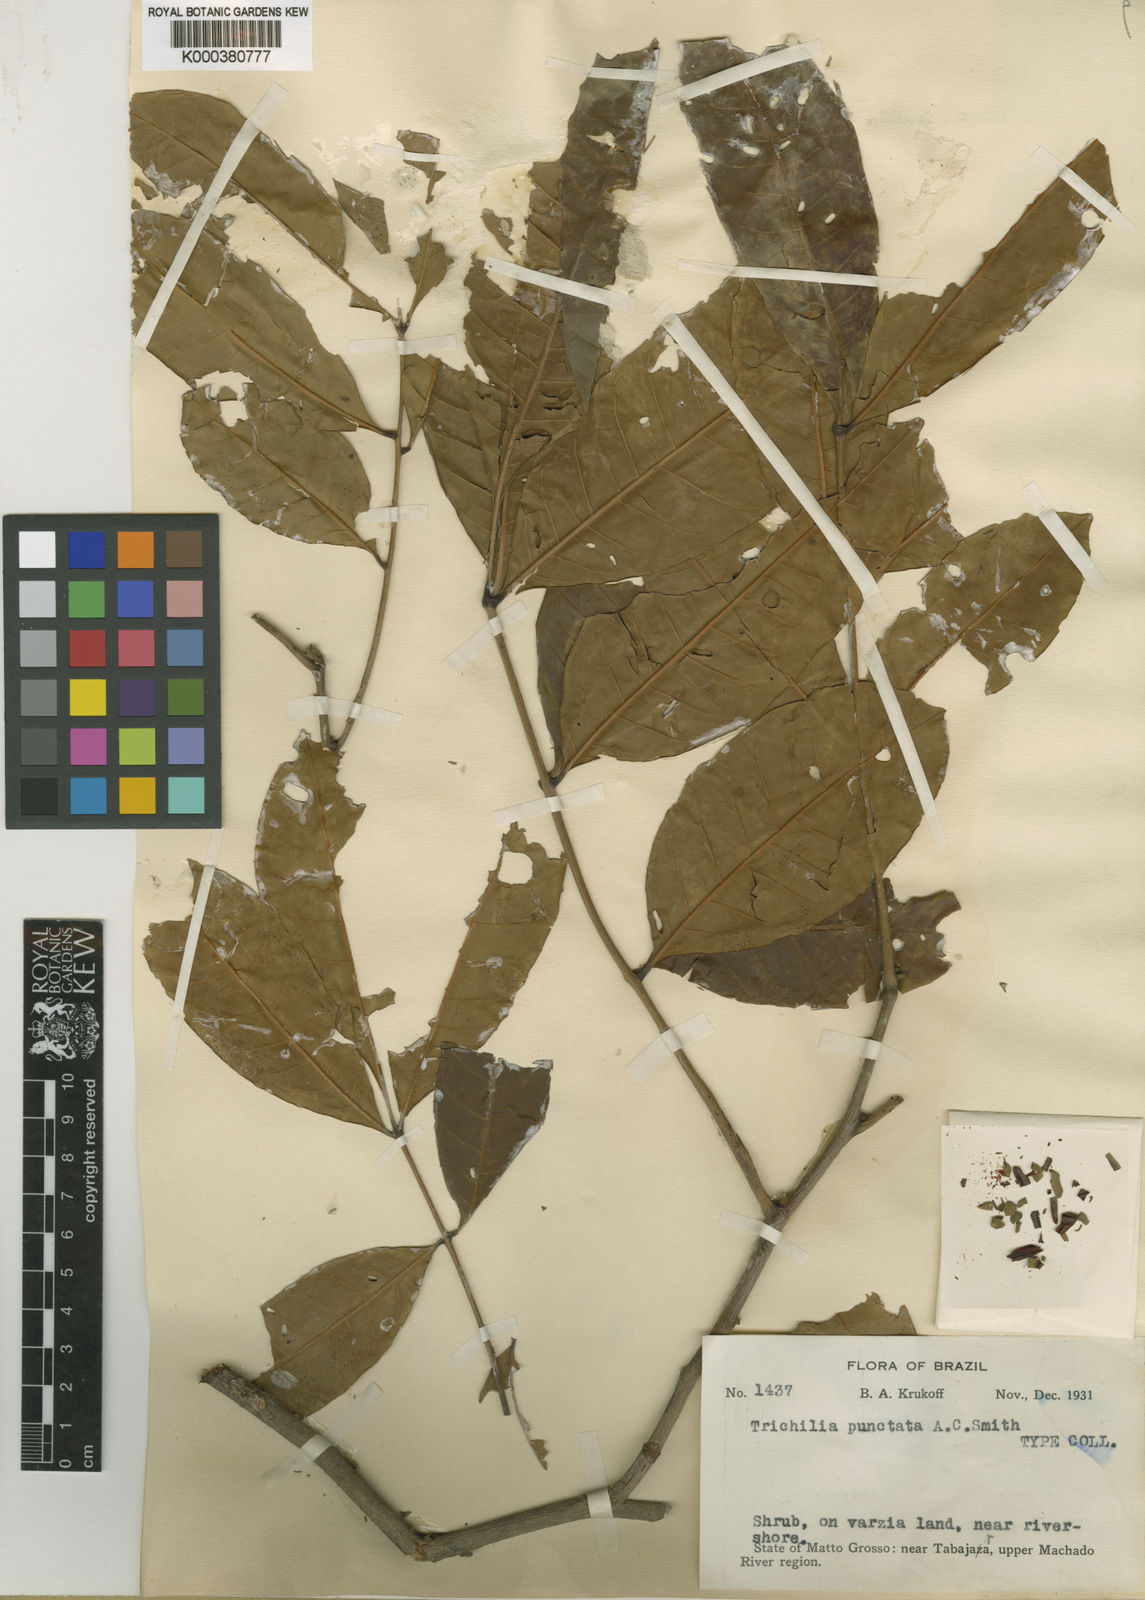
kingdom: Plantae
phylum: Tracheophyta
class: Magnoliopsida
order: Sapindales
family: Meliaceae
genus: Trichilia
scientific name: Trichilia rubra
